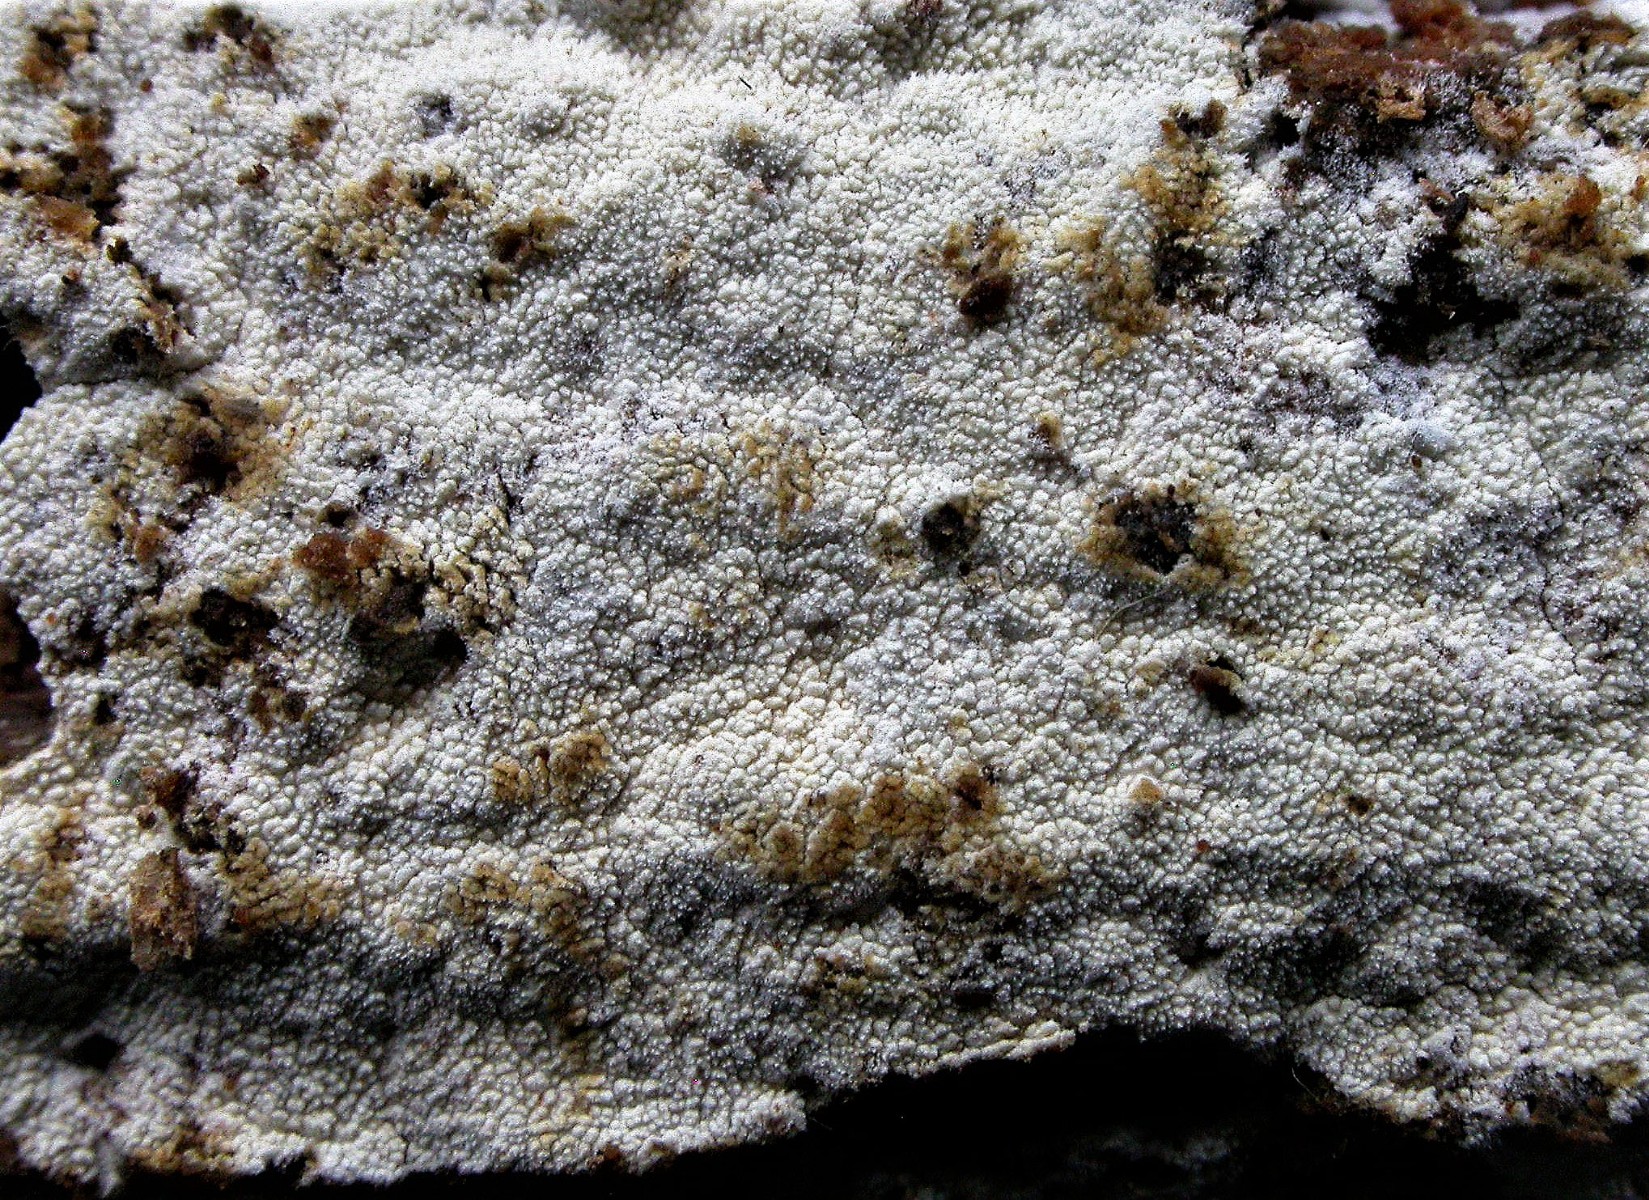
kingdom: Fungi
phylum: Basidiomycota
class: Agaricomycetes
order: Hymenochaetales
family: Schizoporaceae
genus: Xylodon
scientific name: Xylodon nesporii
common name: fintandet tandsvamp
